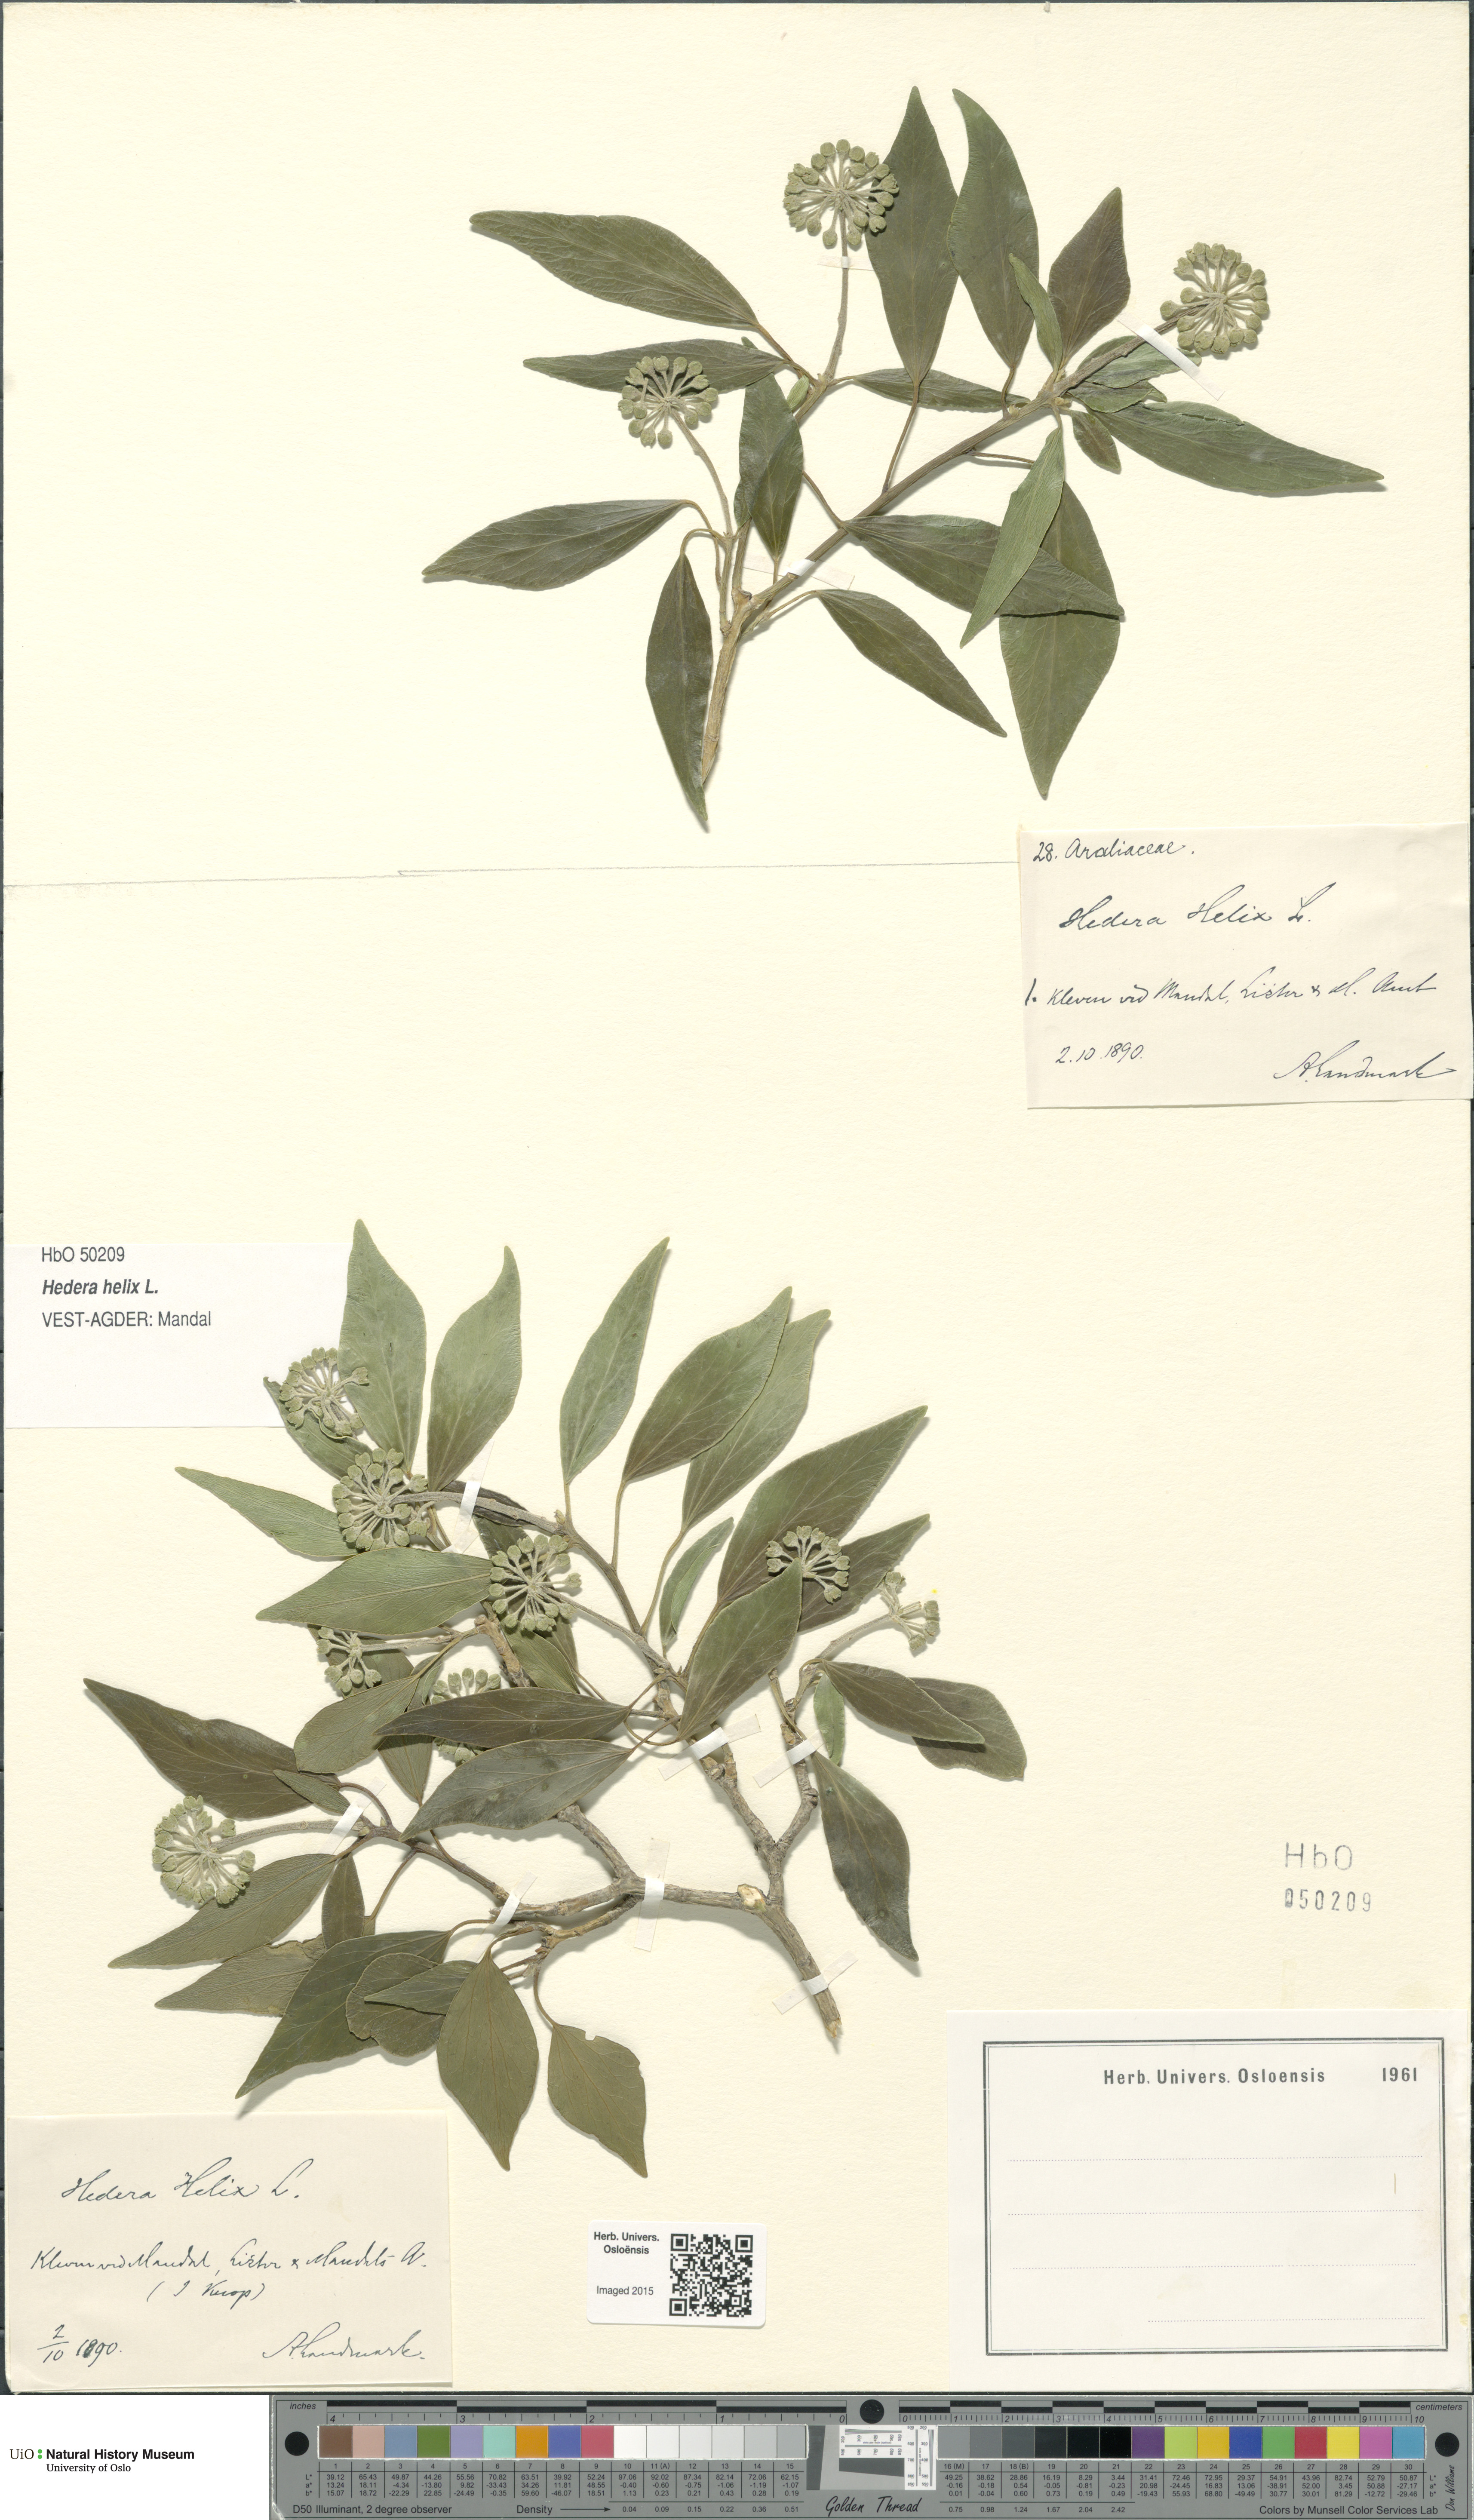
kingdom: Plantae
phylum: Tracheophyta
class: Magnoliopsida
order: Apiales
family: Araliaceae
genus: Hedera
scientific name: Hedera helix
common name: Ivy
